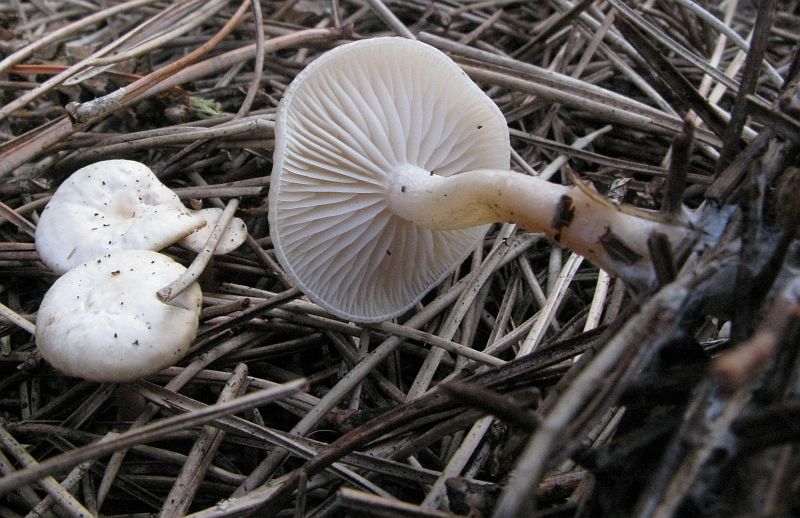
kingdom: Fungi
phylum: Basidiomycota
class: Agaricomycetes
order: Agaricales
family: Tricholomataceae
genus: Leucocybe
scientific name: Leucocybe candicans
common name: kridt-tragthat
